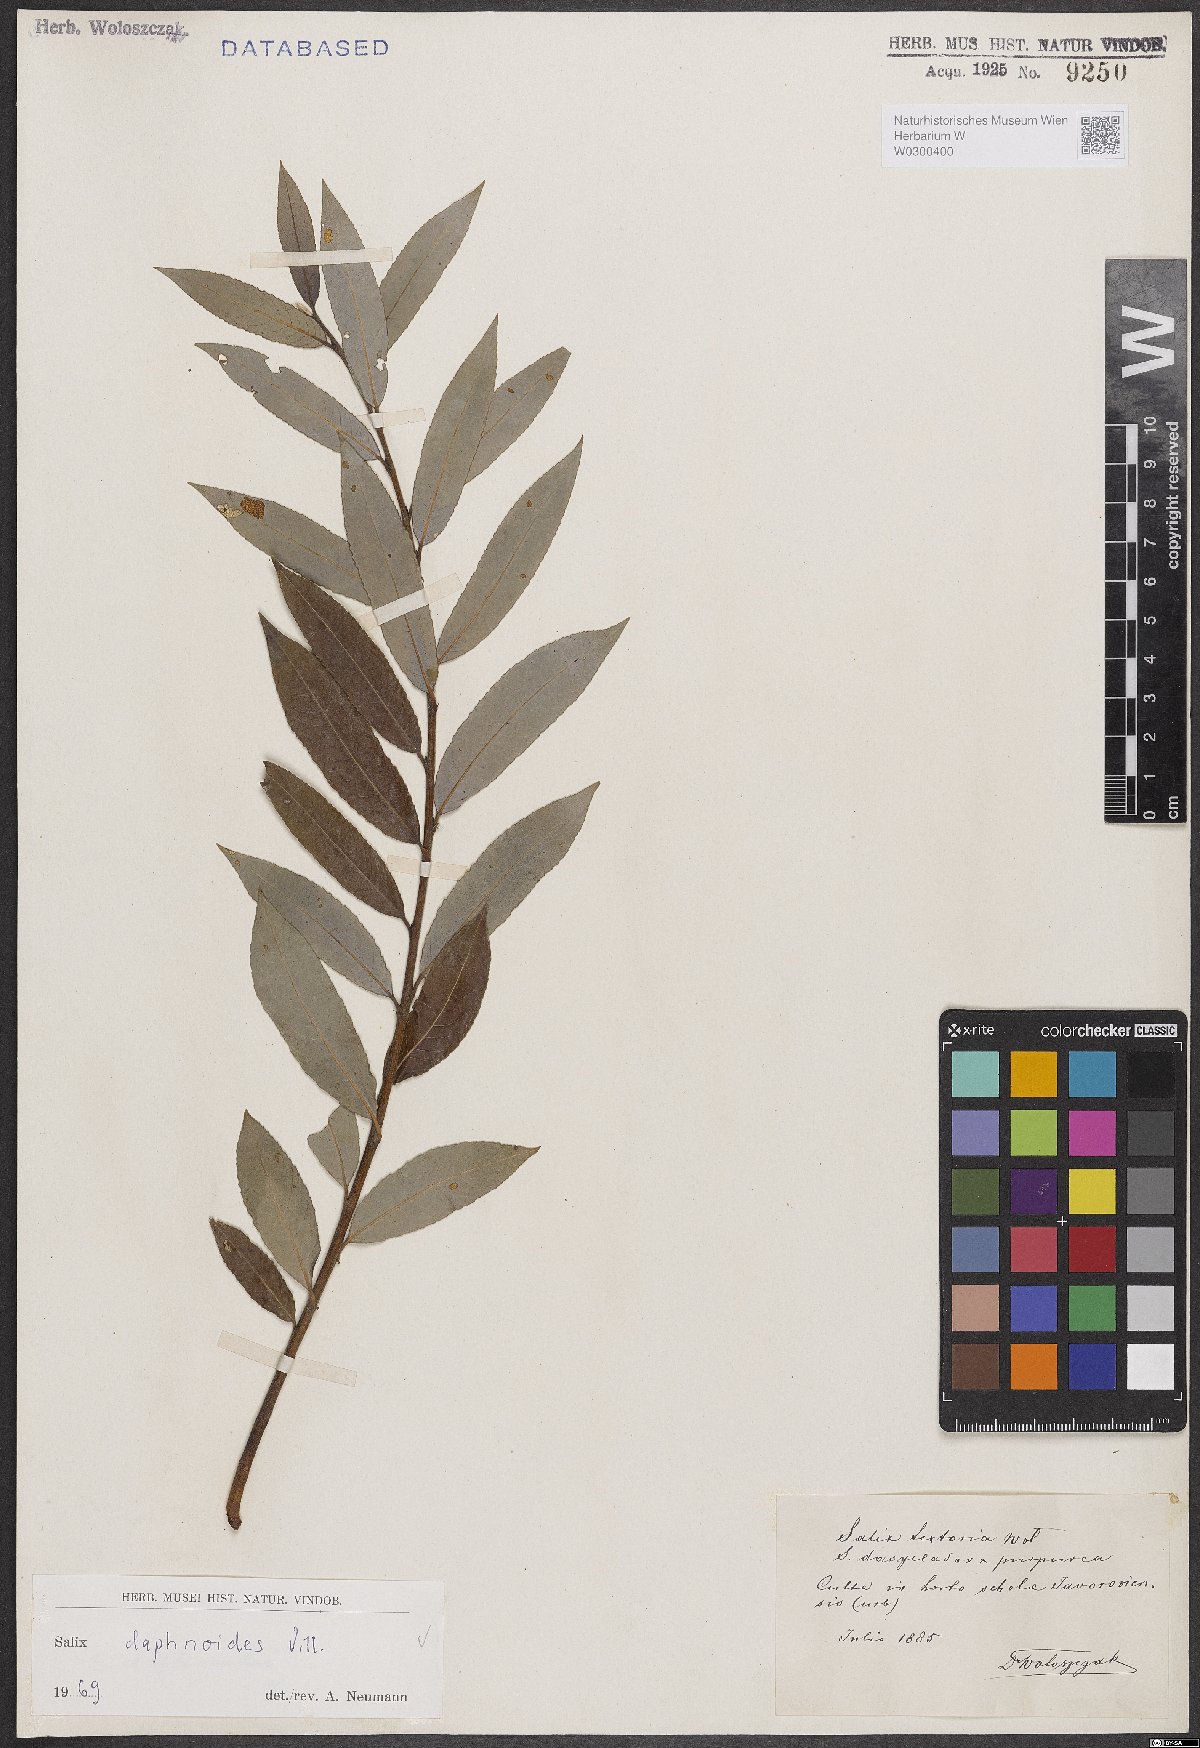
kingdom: Plantae
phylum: Tracheophyta
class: Magnoliopsida
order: Malpighiales
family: Salicaceae
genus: Salix
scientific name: Salix daphnoides
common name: European violet-willow
